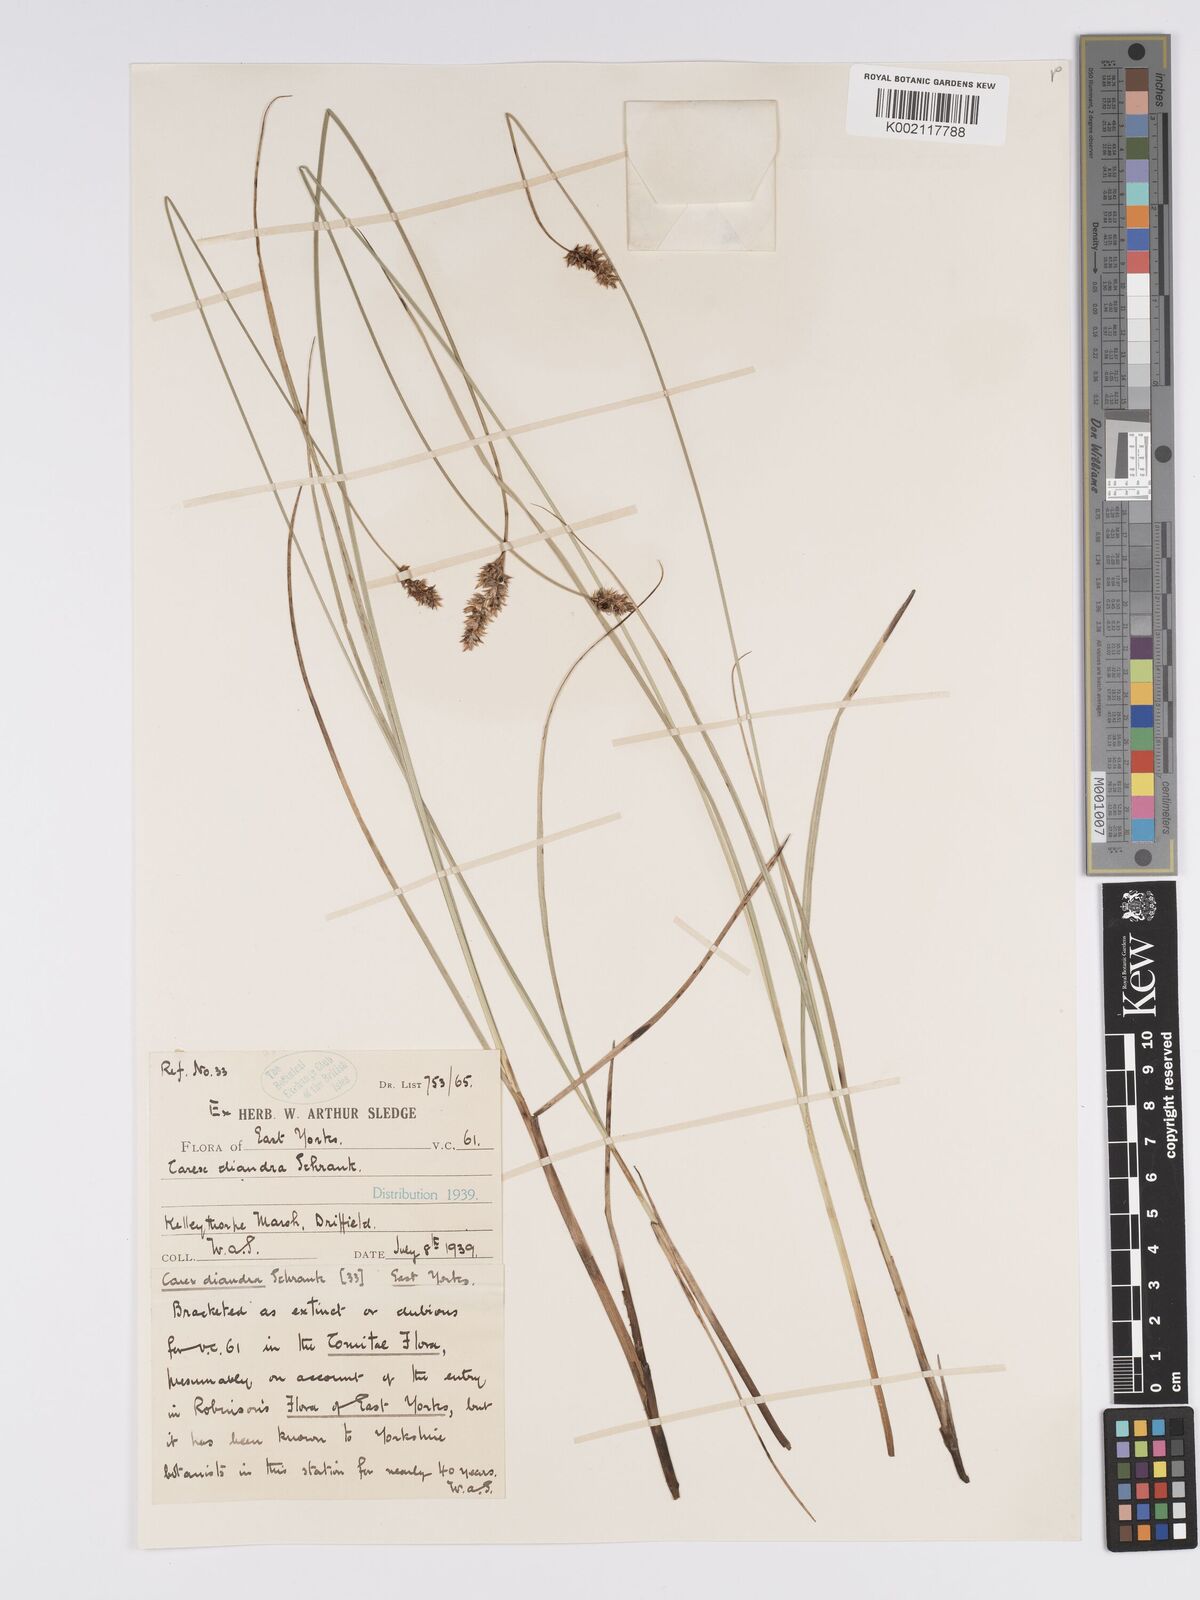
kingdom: Plantae
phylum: Tracheophyta
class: Liliopsida
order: Poales
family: Cyperaceae
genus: Carex
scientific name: Carex diandra
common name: Lesser tussock-sedge
